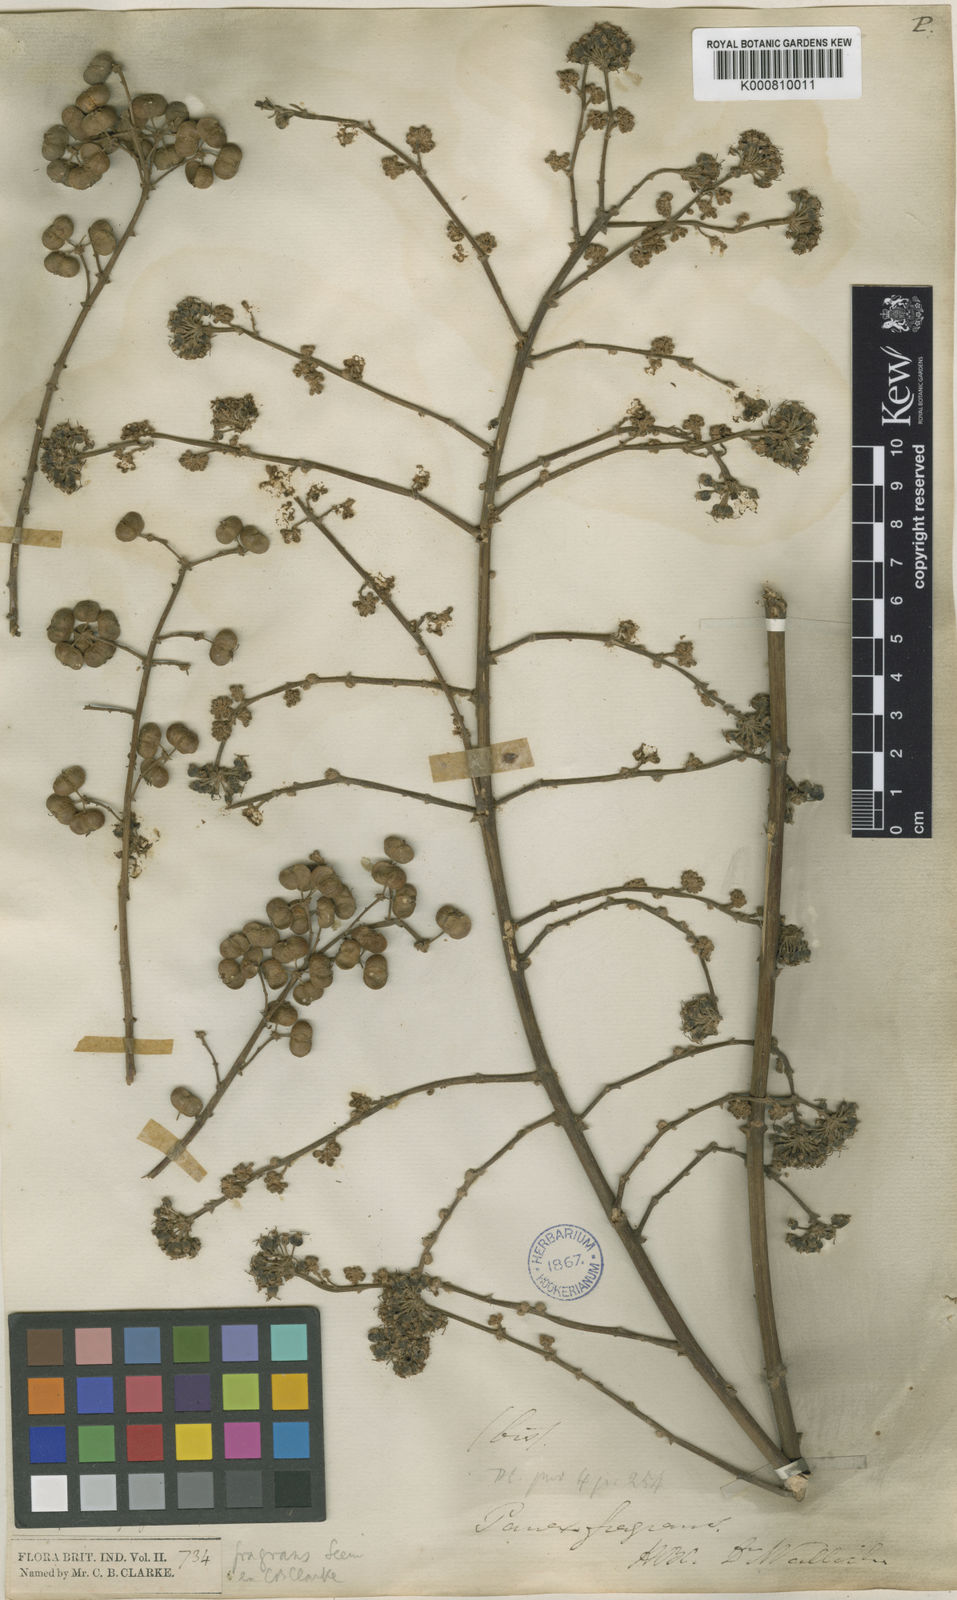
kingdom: Plantae
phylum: Tracheophyta
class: Magnoliopsida
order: Apiales
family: Araliaceae
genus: Heteropanax
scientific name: Heteropanax fragrans
